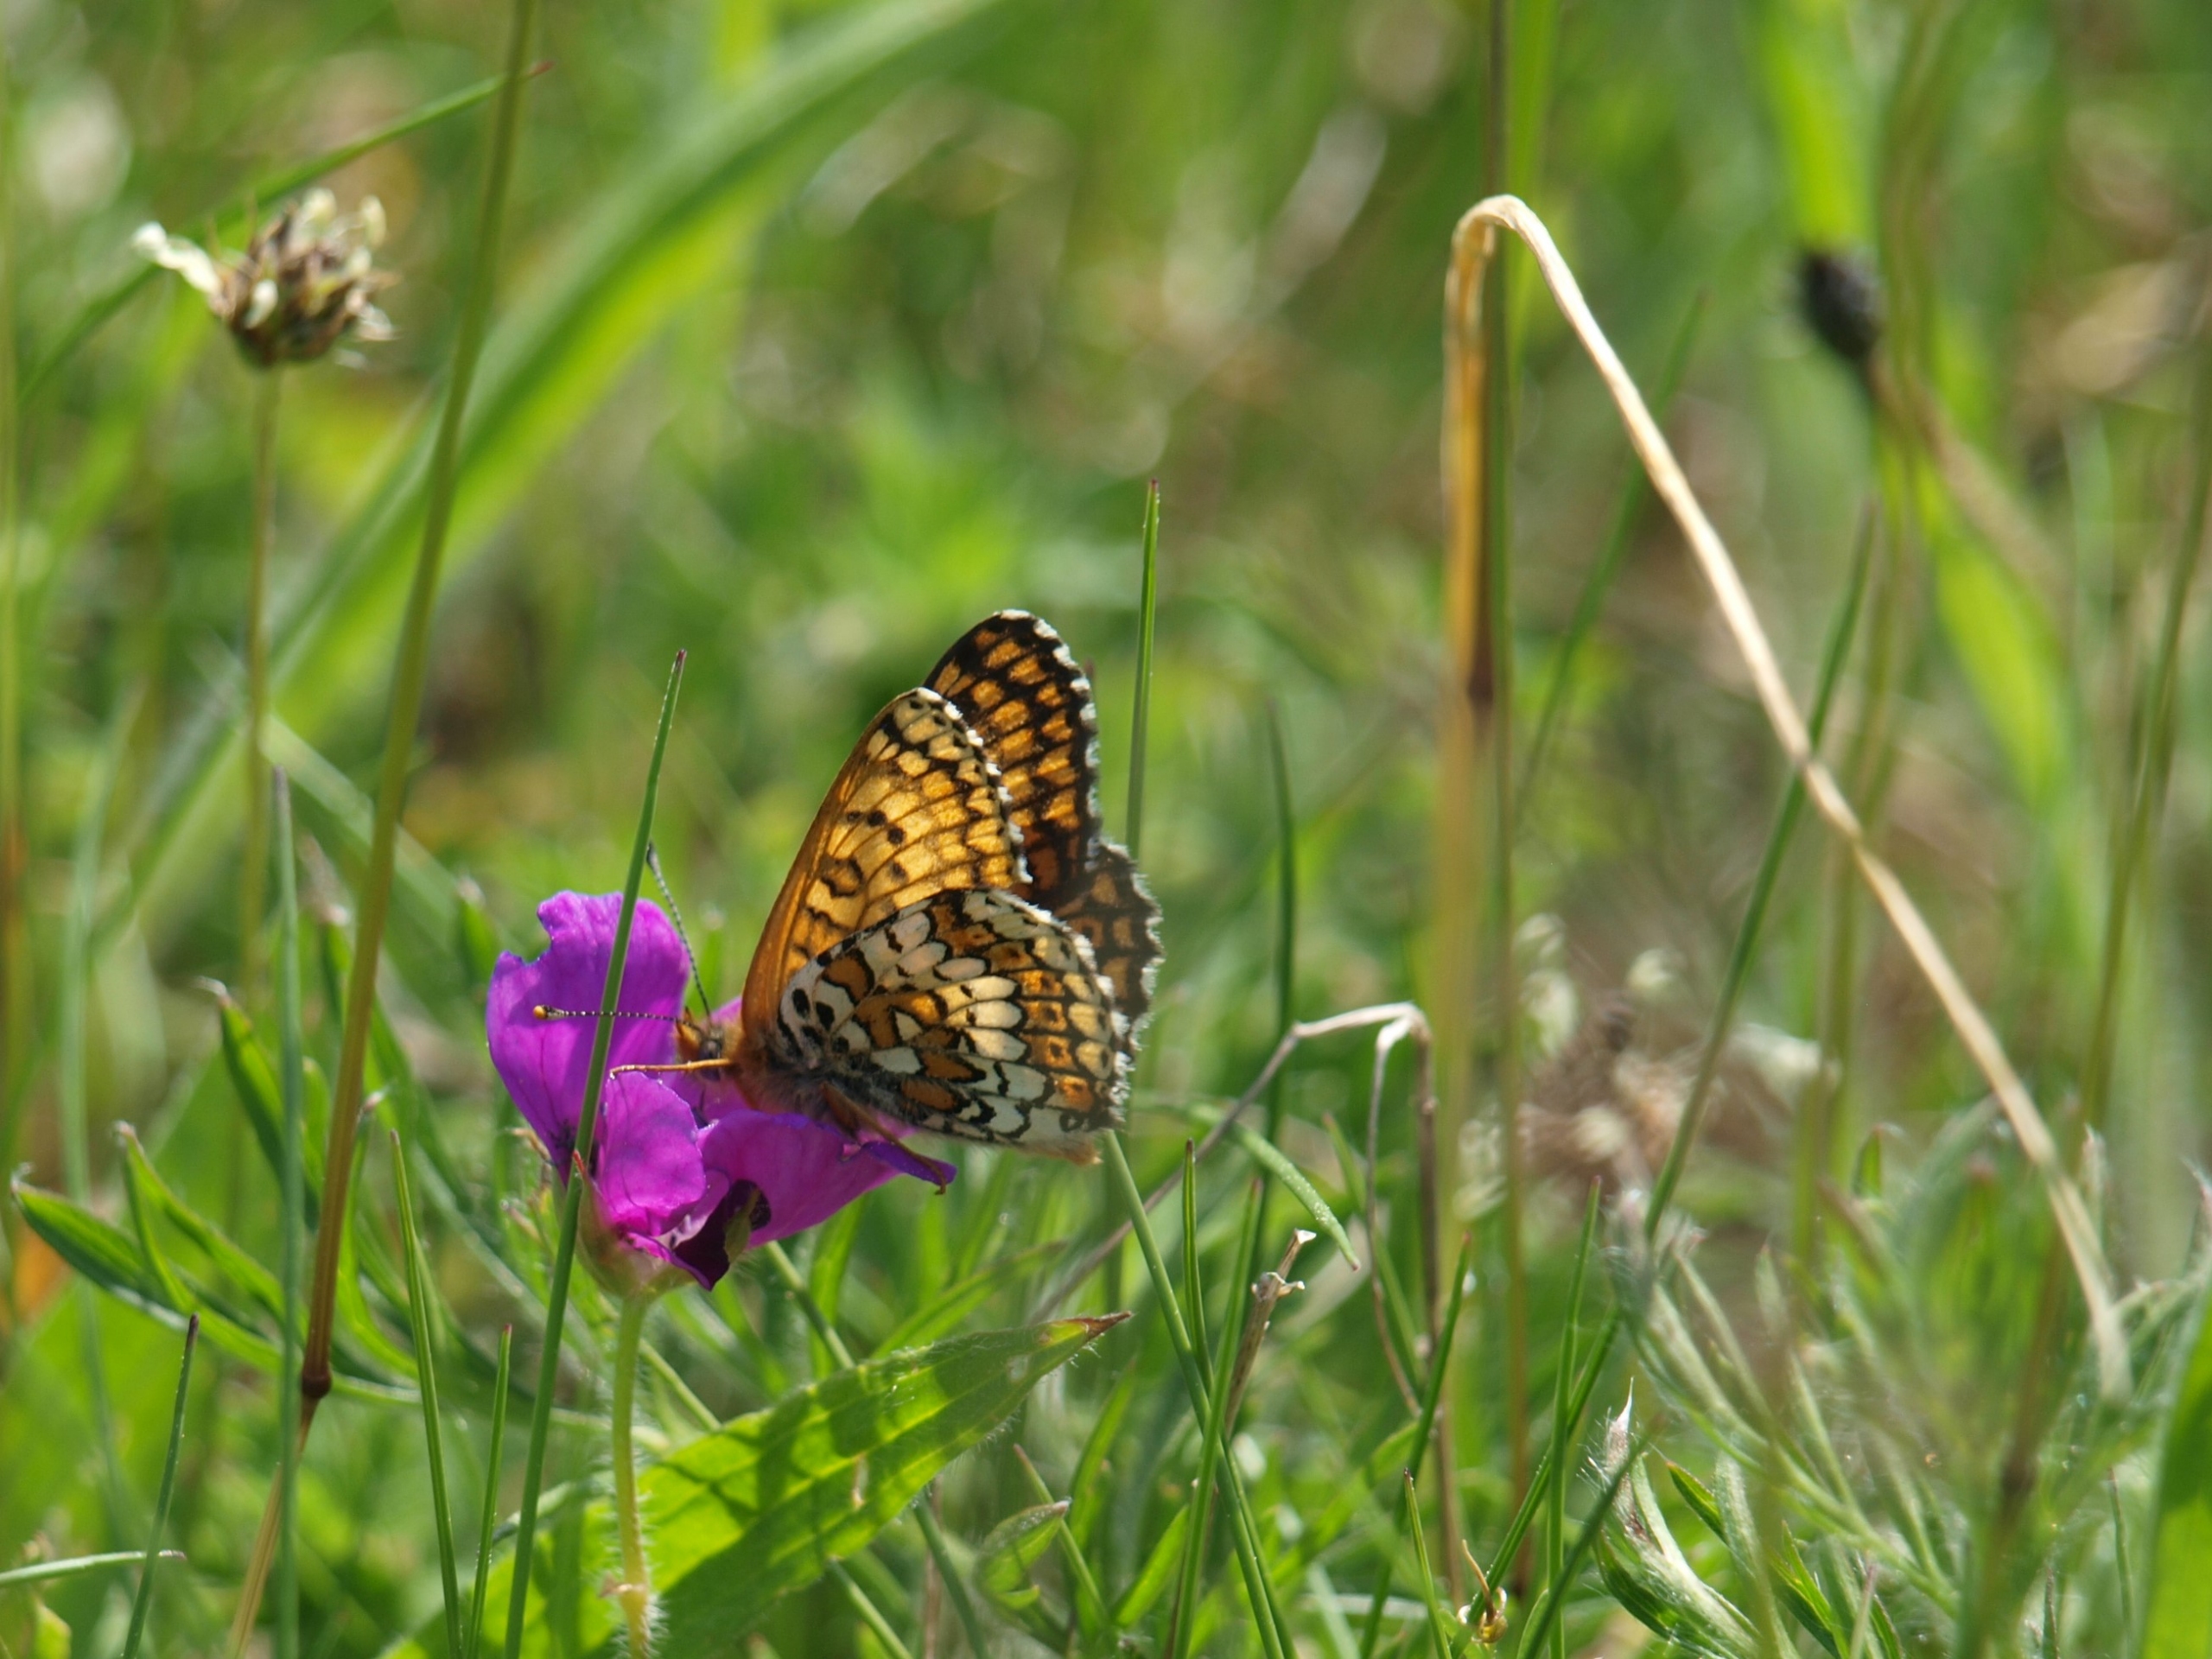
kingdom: Animalia
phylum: Arthropoda
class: Insecta
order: Lepidoptera
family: Nymphalidae
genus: Melitaea
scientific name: Melitaea cinxia
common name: Okkergul pletvinge
